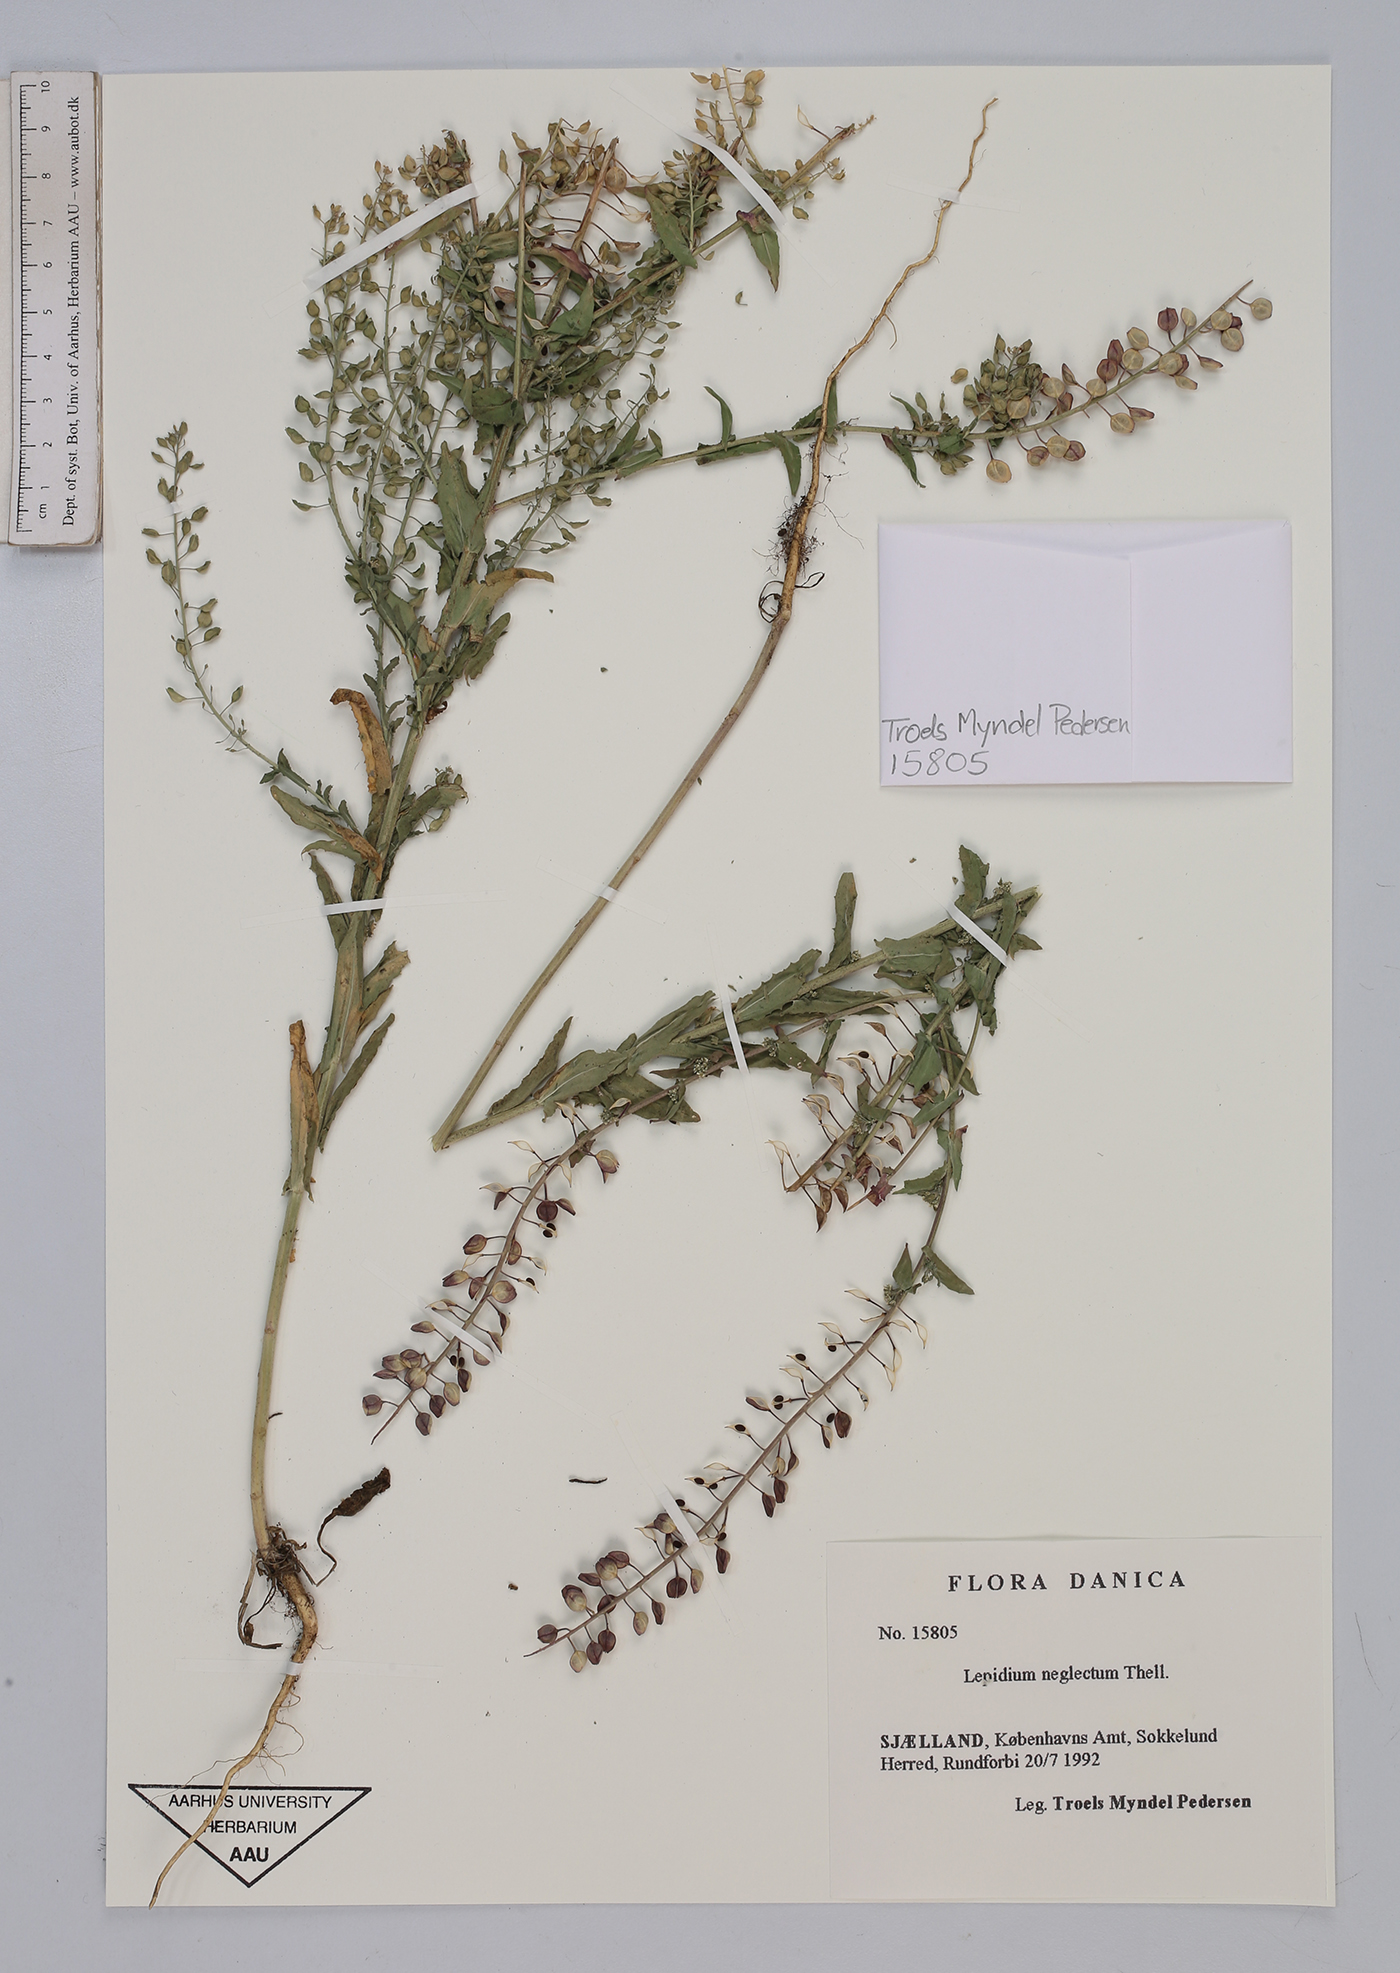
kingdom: Plantae
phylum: Tracheophyta
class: Magnoliopsida
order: Brassicales
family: Brassicaceae
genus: Lepidium
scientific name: Lepidium densiflorum
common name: Miner's pepperwort
